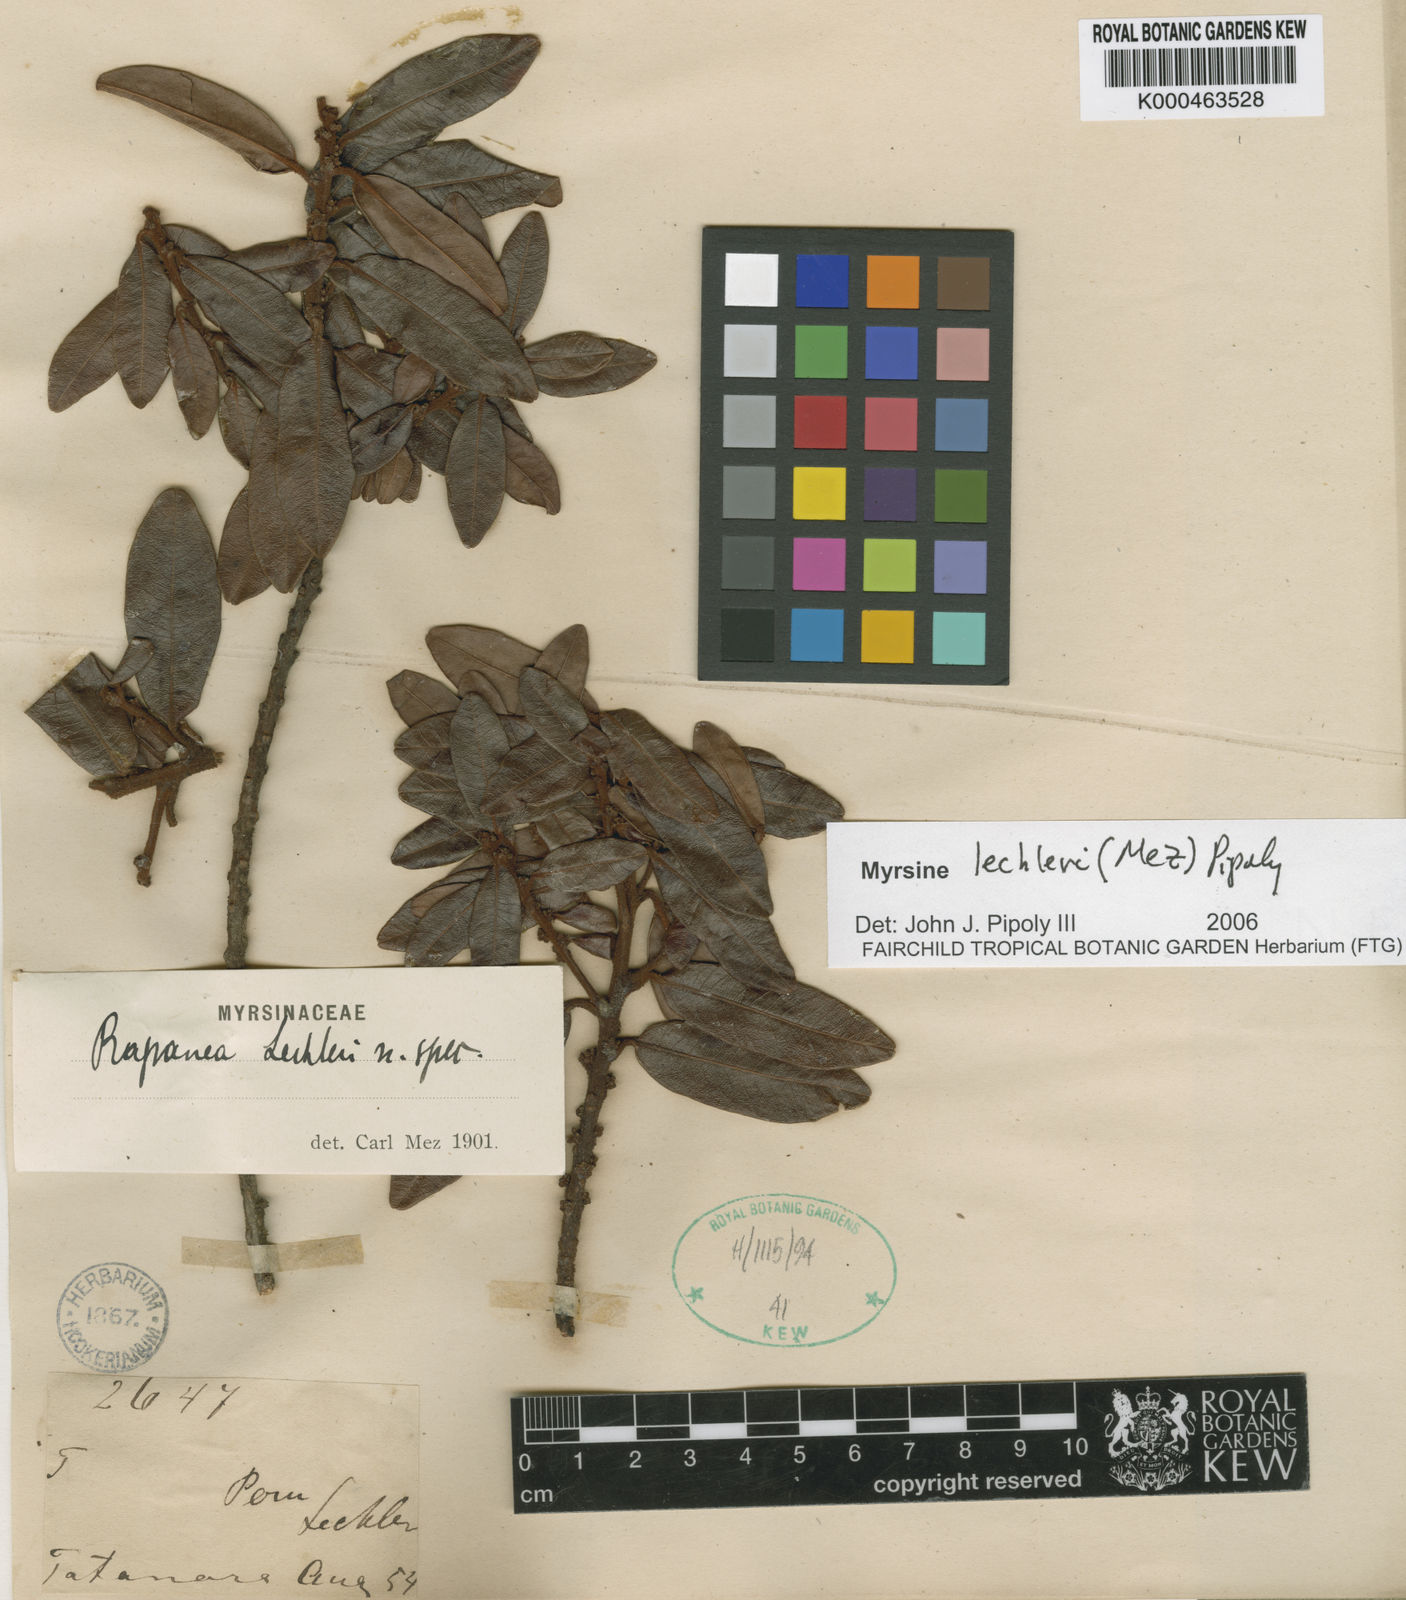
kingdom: Plantae
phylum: Tracheophyta
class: Magnoliopsida
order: Ericales
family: Primulaceae
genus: Myrsine
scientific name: Myrsine lechleri
